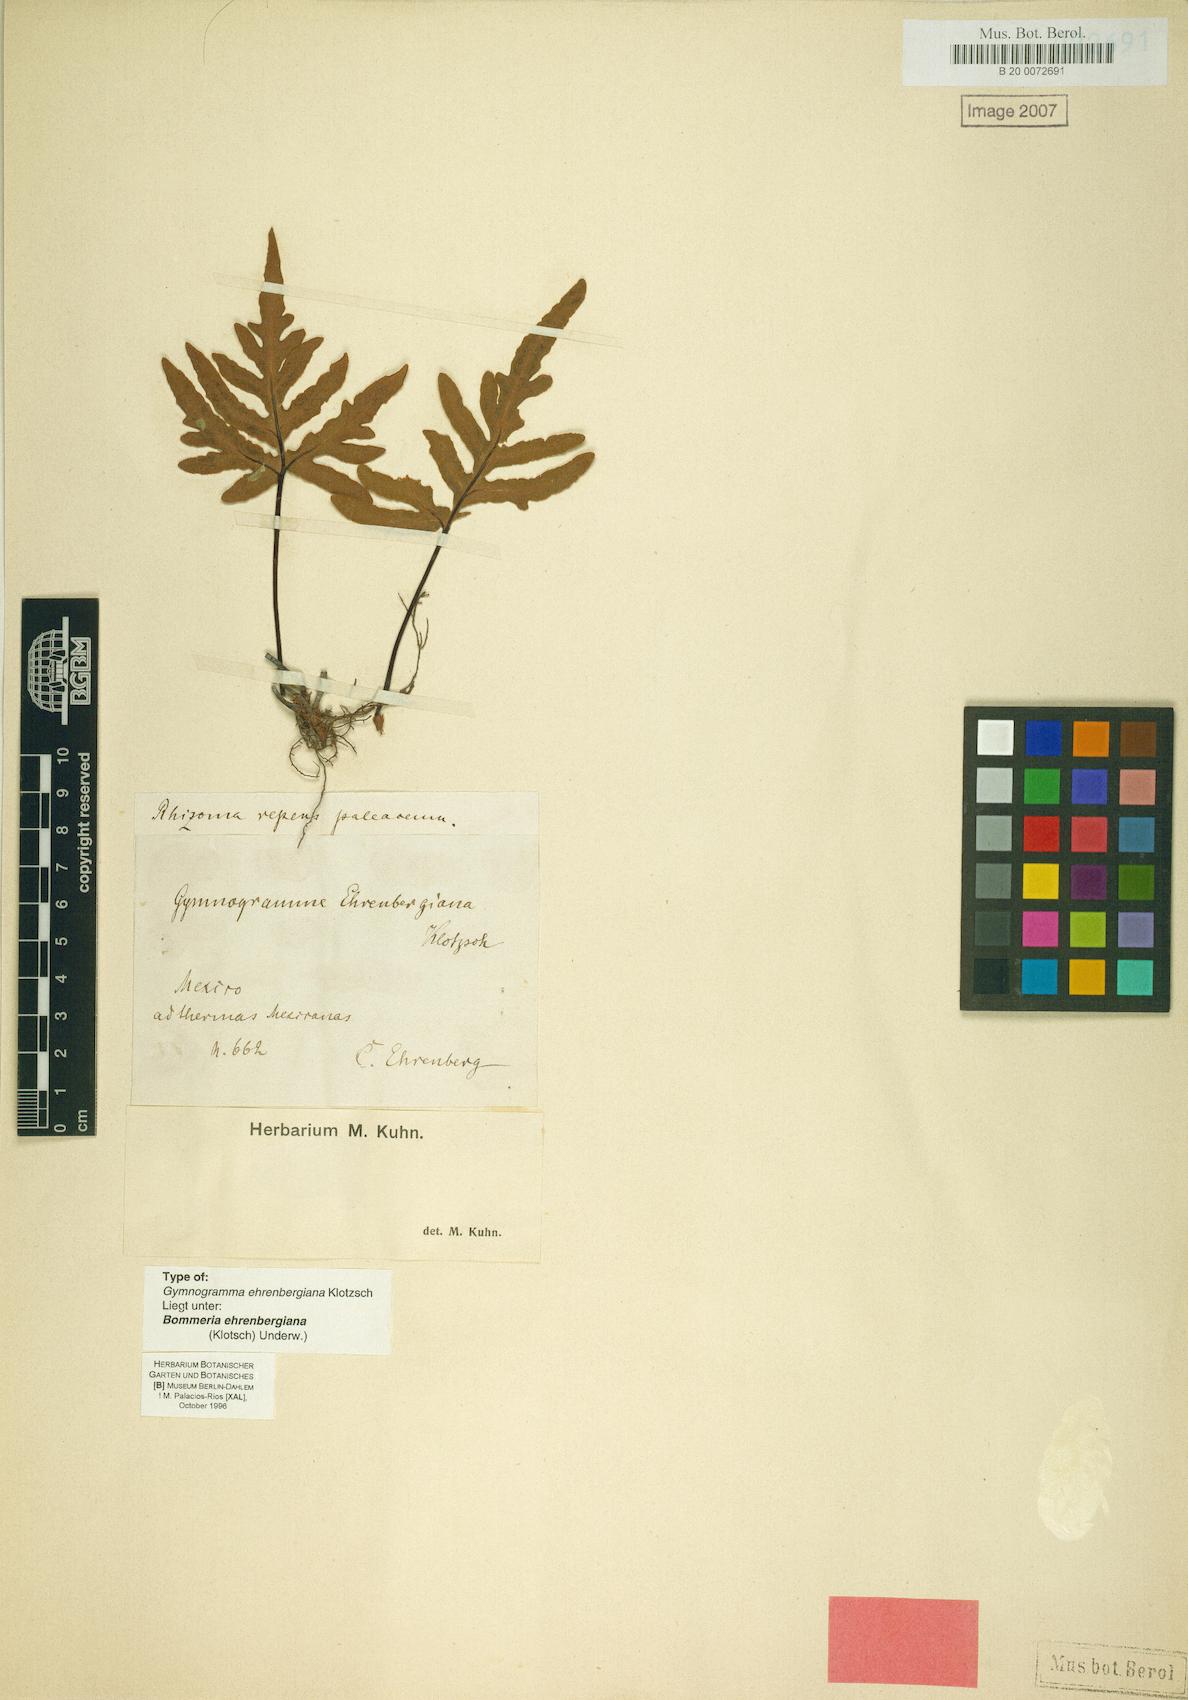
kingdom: Plantae
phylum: Tracheophyta
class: Polypodiopsida
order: Polypodiales
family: Pteridaceae
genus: Bommeria
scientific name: Bommeria ehrenbergiana
